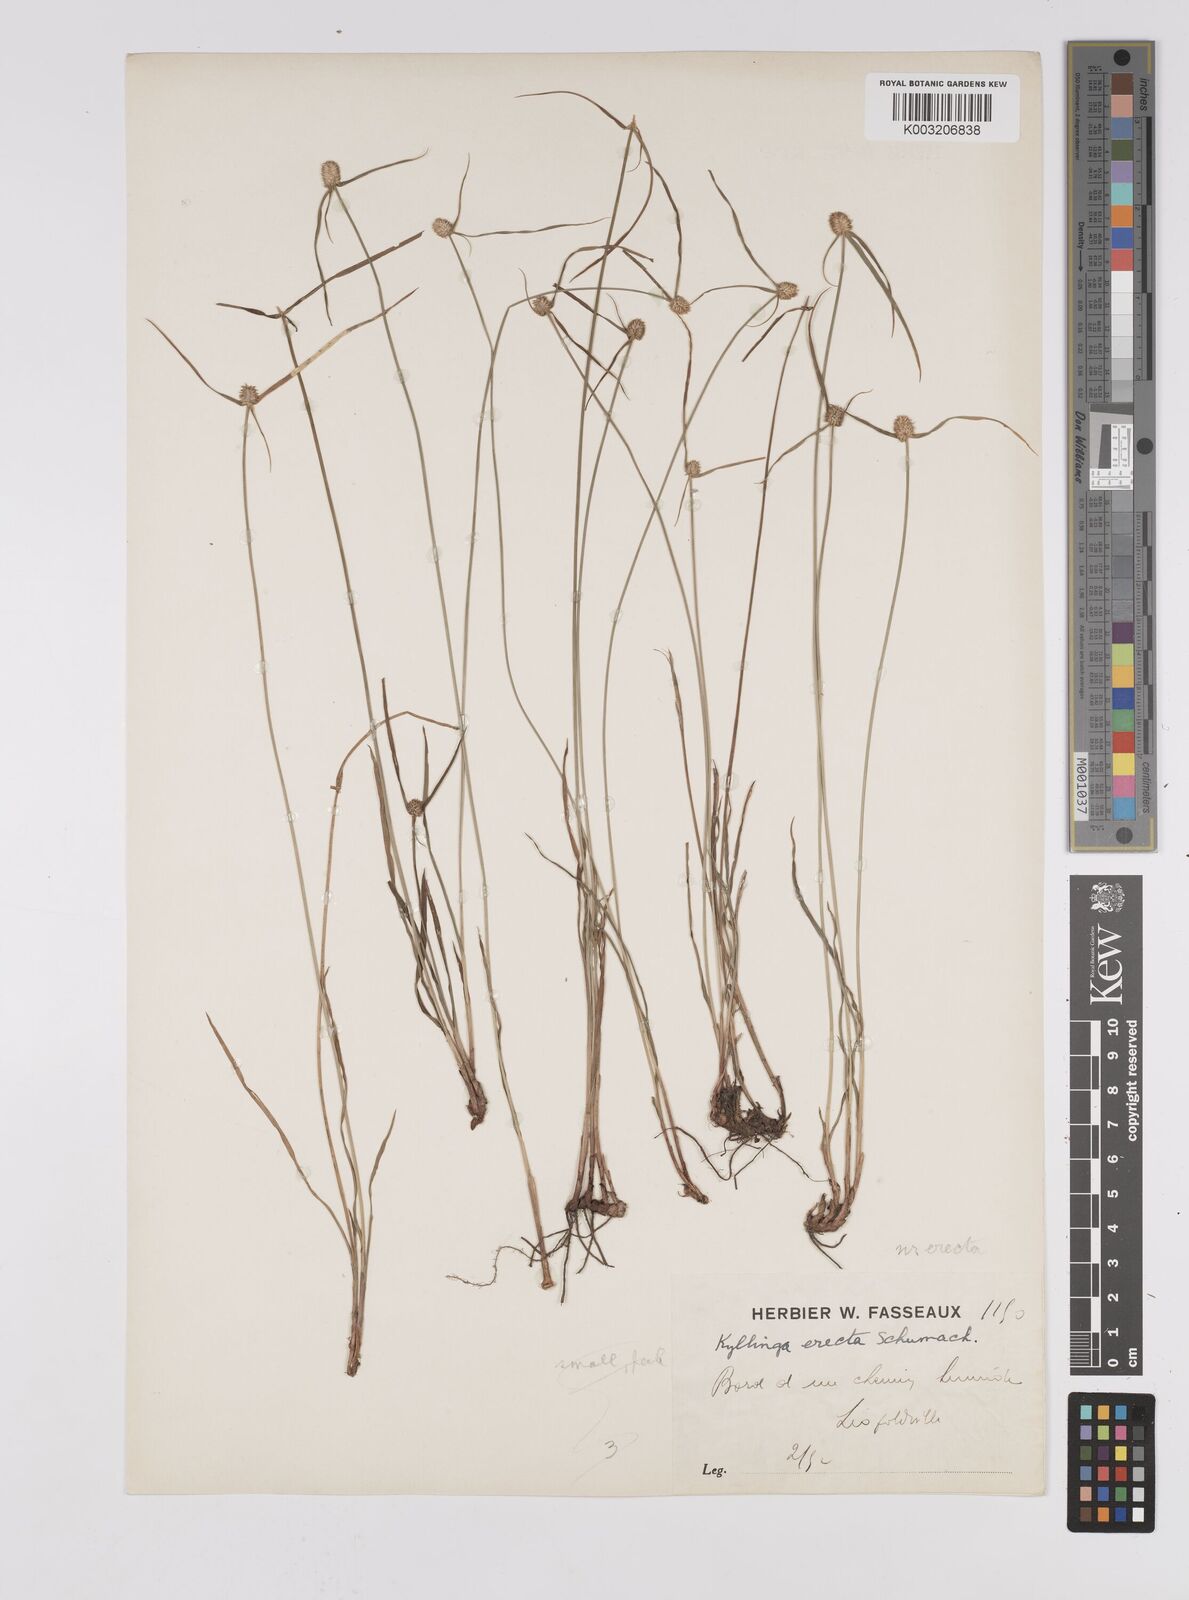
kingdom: Plantae
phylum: Tracheophyta
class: Liliopsida
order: Poales
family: Cyperaceae
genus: Cyperus
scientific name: Cyperus erectus
